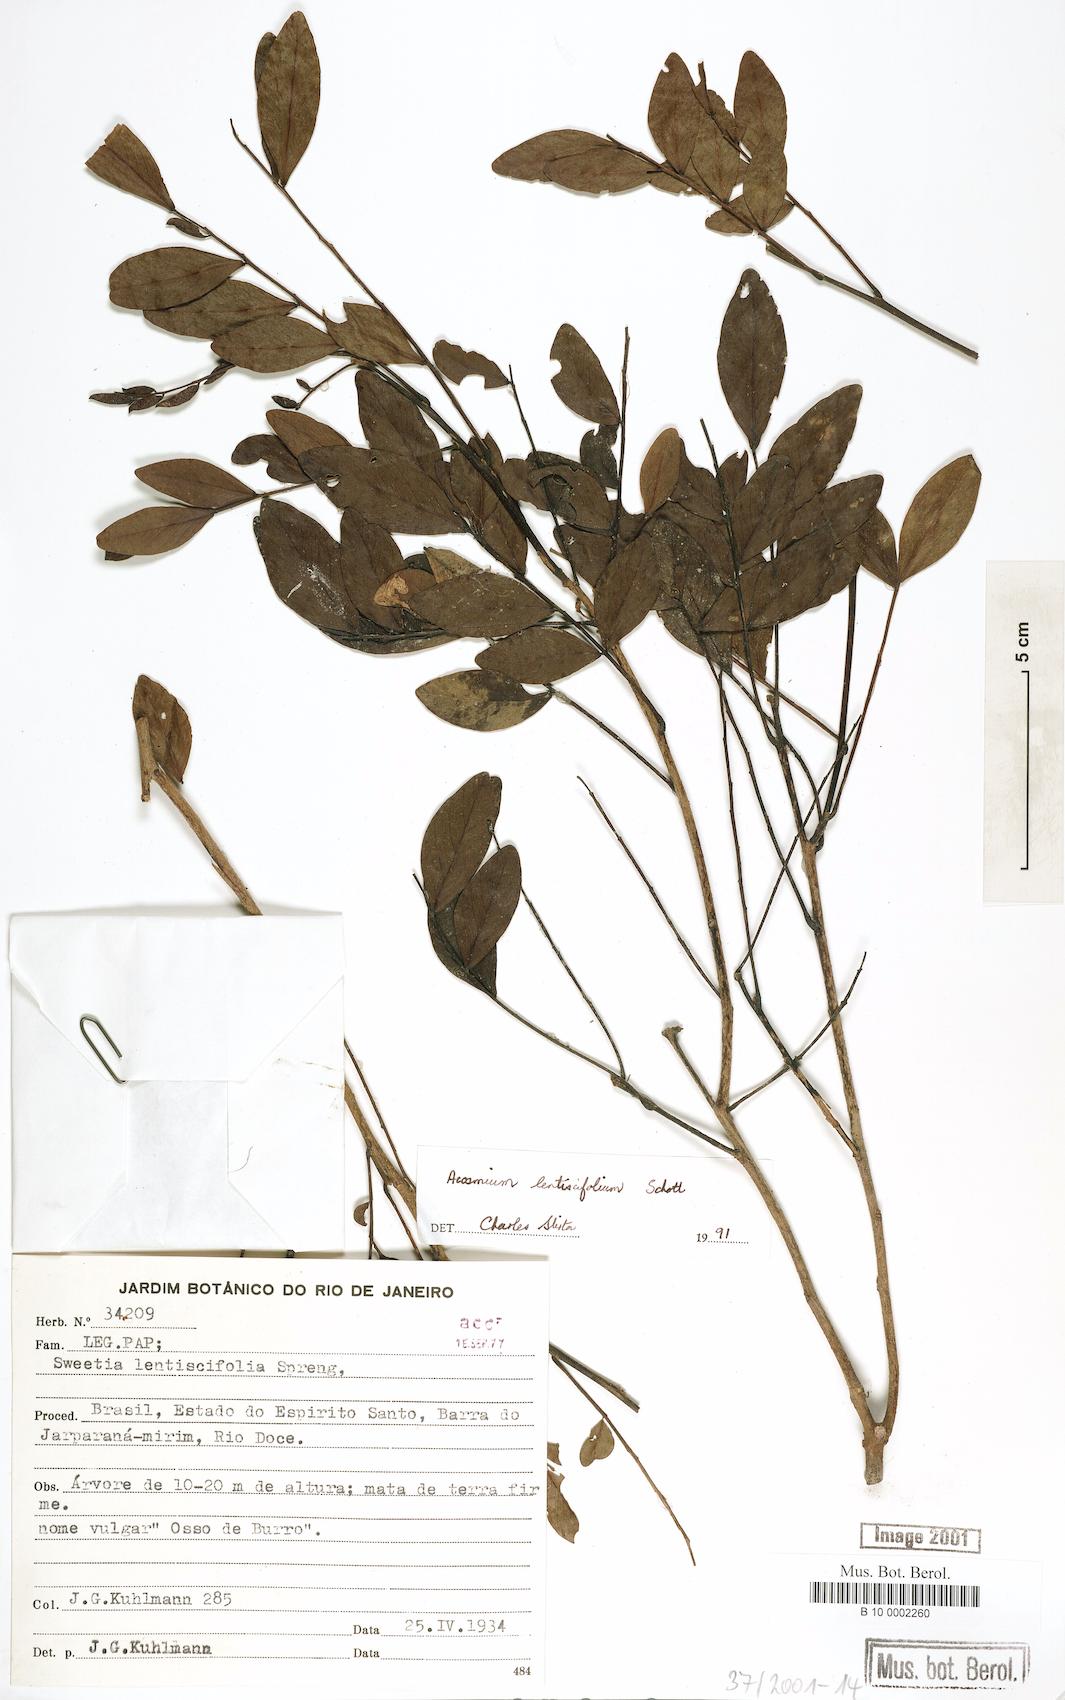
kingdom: Plantae
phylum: Tracheophyta
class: Magnoliopsida
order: Fabales
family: Fabaceae
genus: Acosmium
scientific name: Acosmium lentiscifolium
